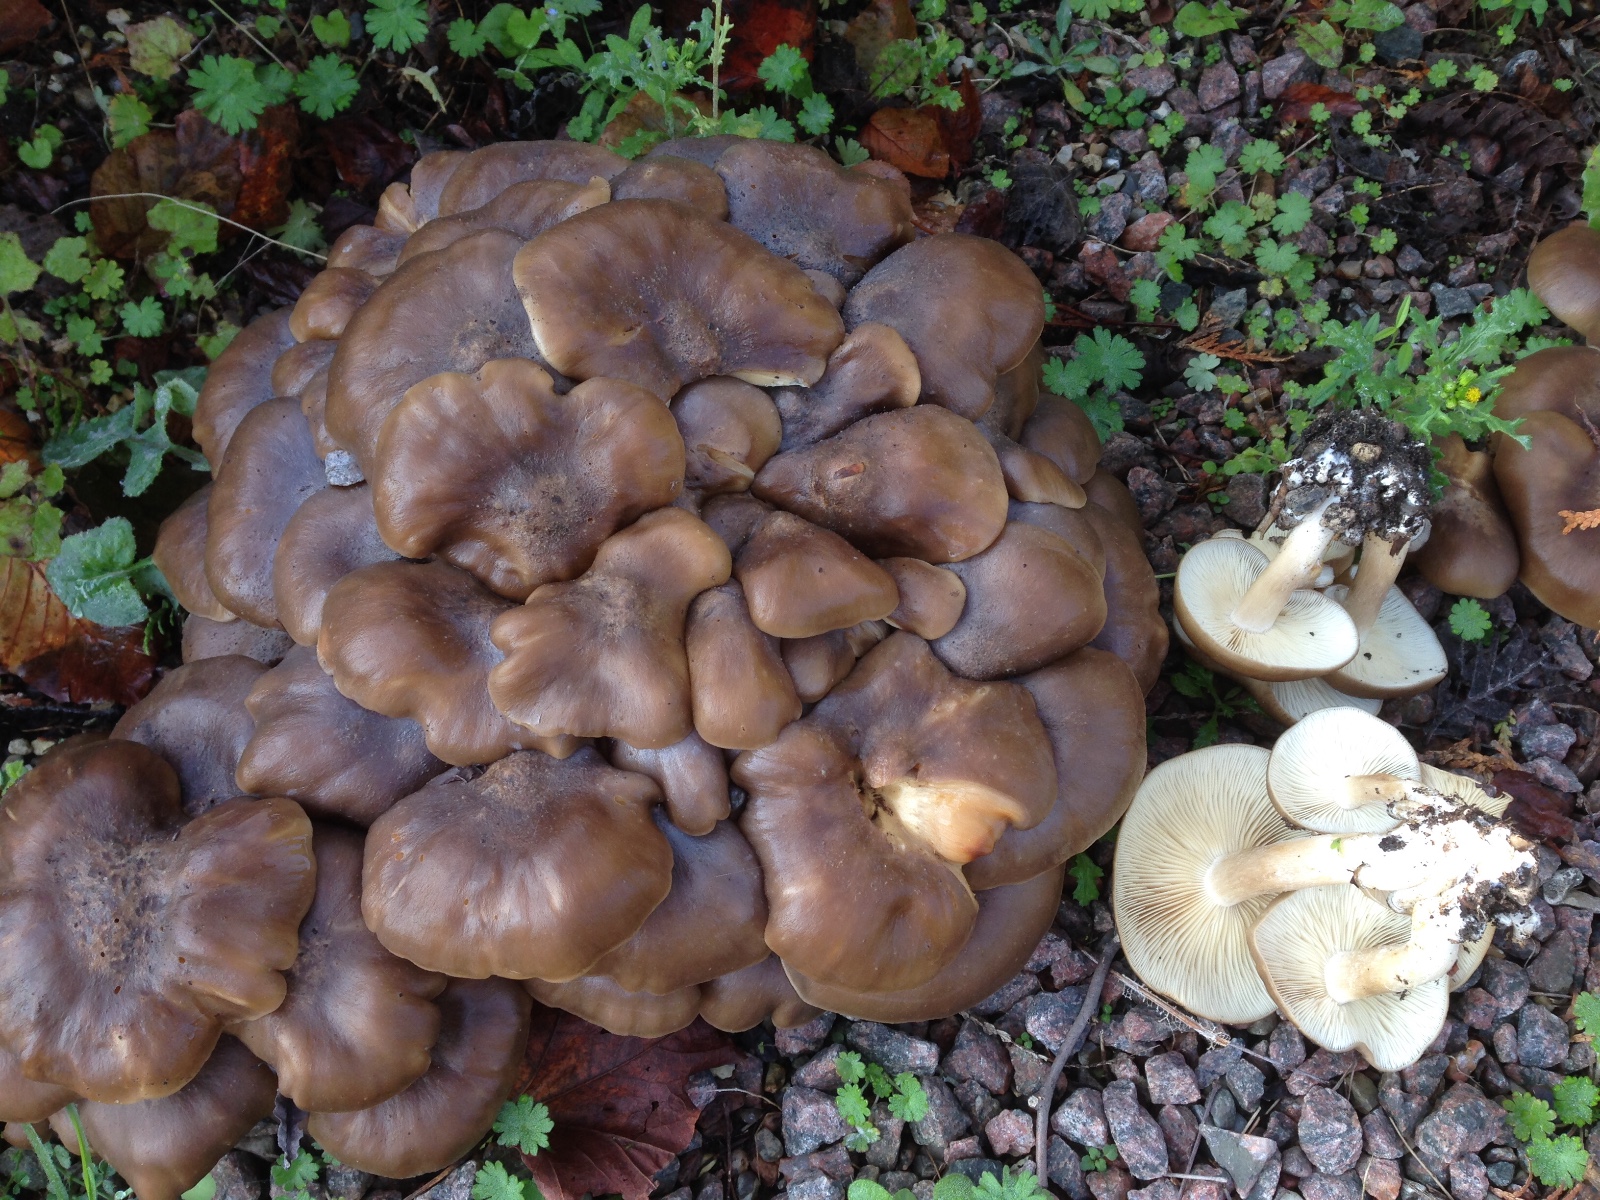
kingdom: Fungi
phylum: Basidiomycota
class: Agaricomycetes
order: Agaricales
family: Lyophyllaceae
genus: Lyophyllum
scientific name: Lyophyllum
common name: gråblad
